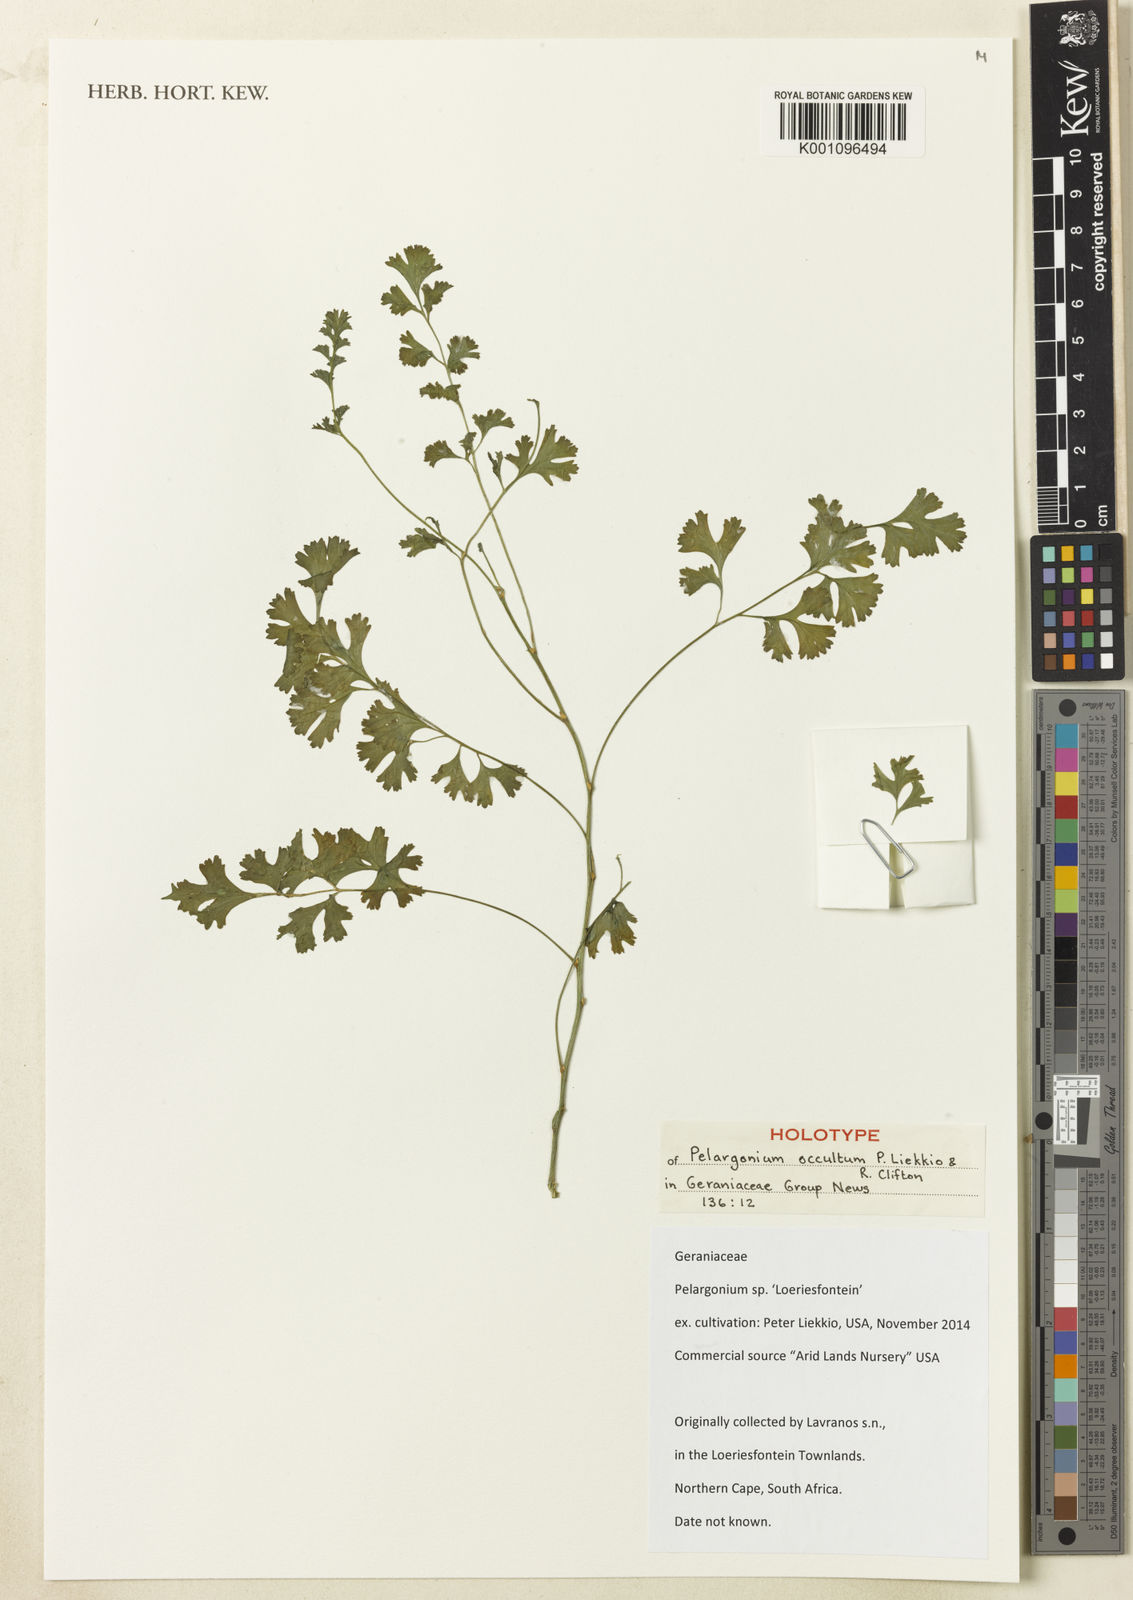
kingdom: Plantae
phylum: Tracheophyta
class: Magnoliopsida
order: Geraniales
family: Geraniaceae
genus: Pelargonium
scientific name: Pelargonium
